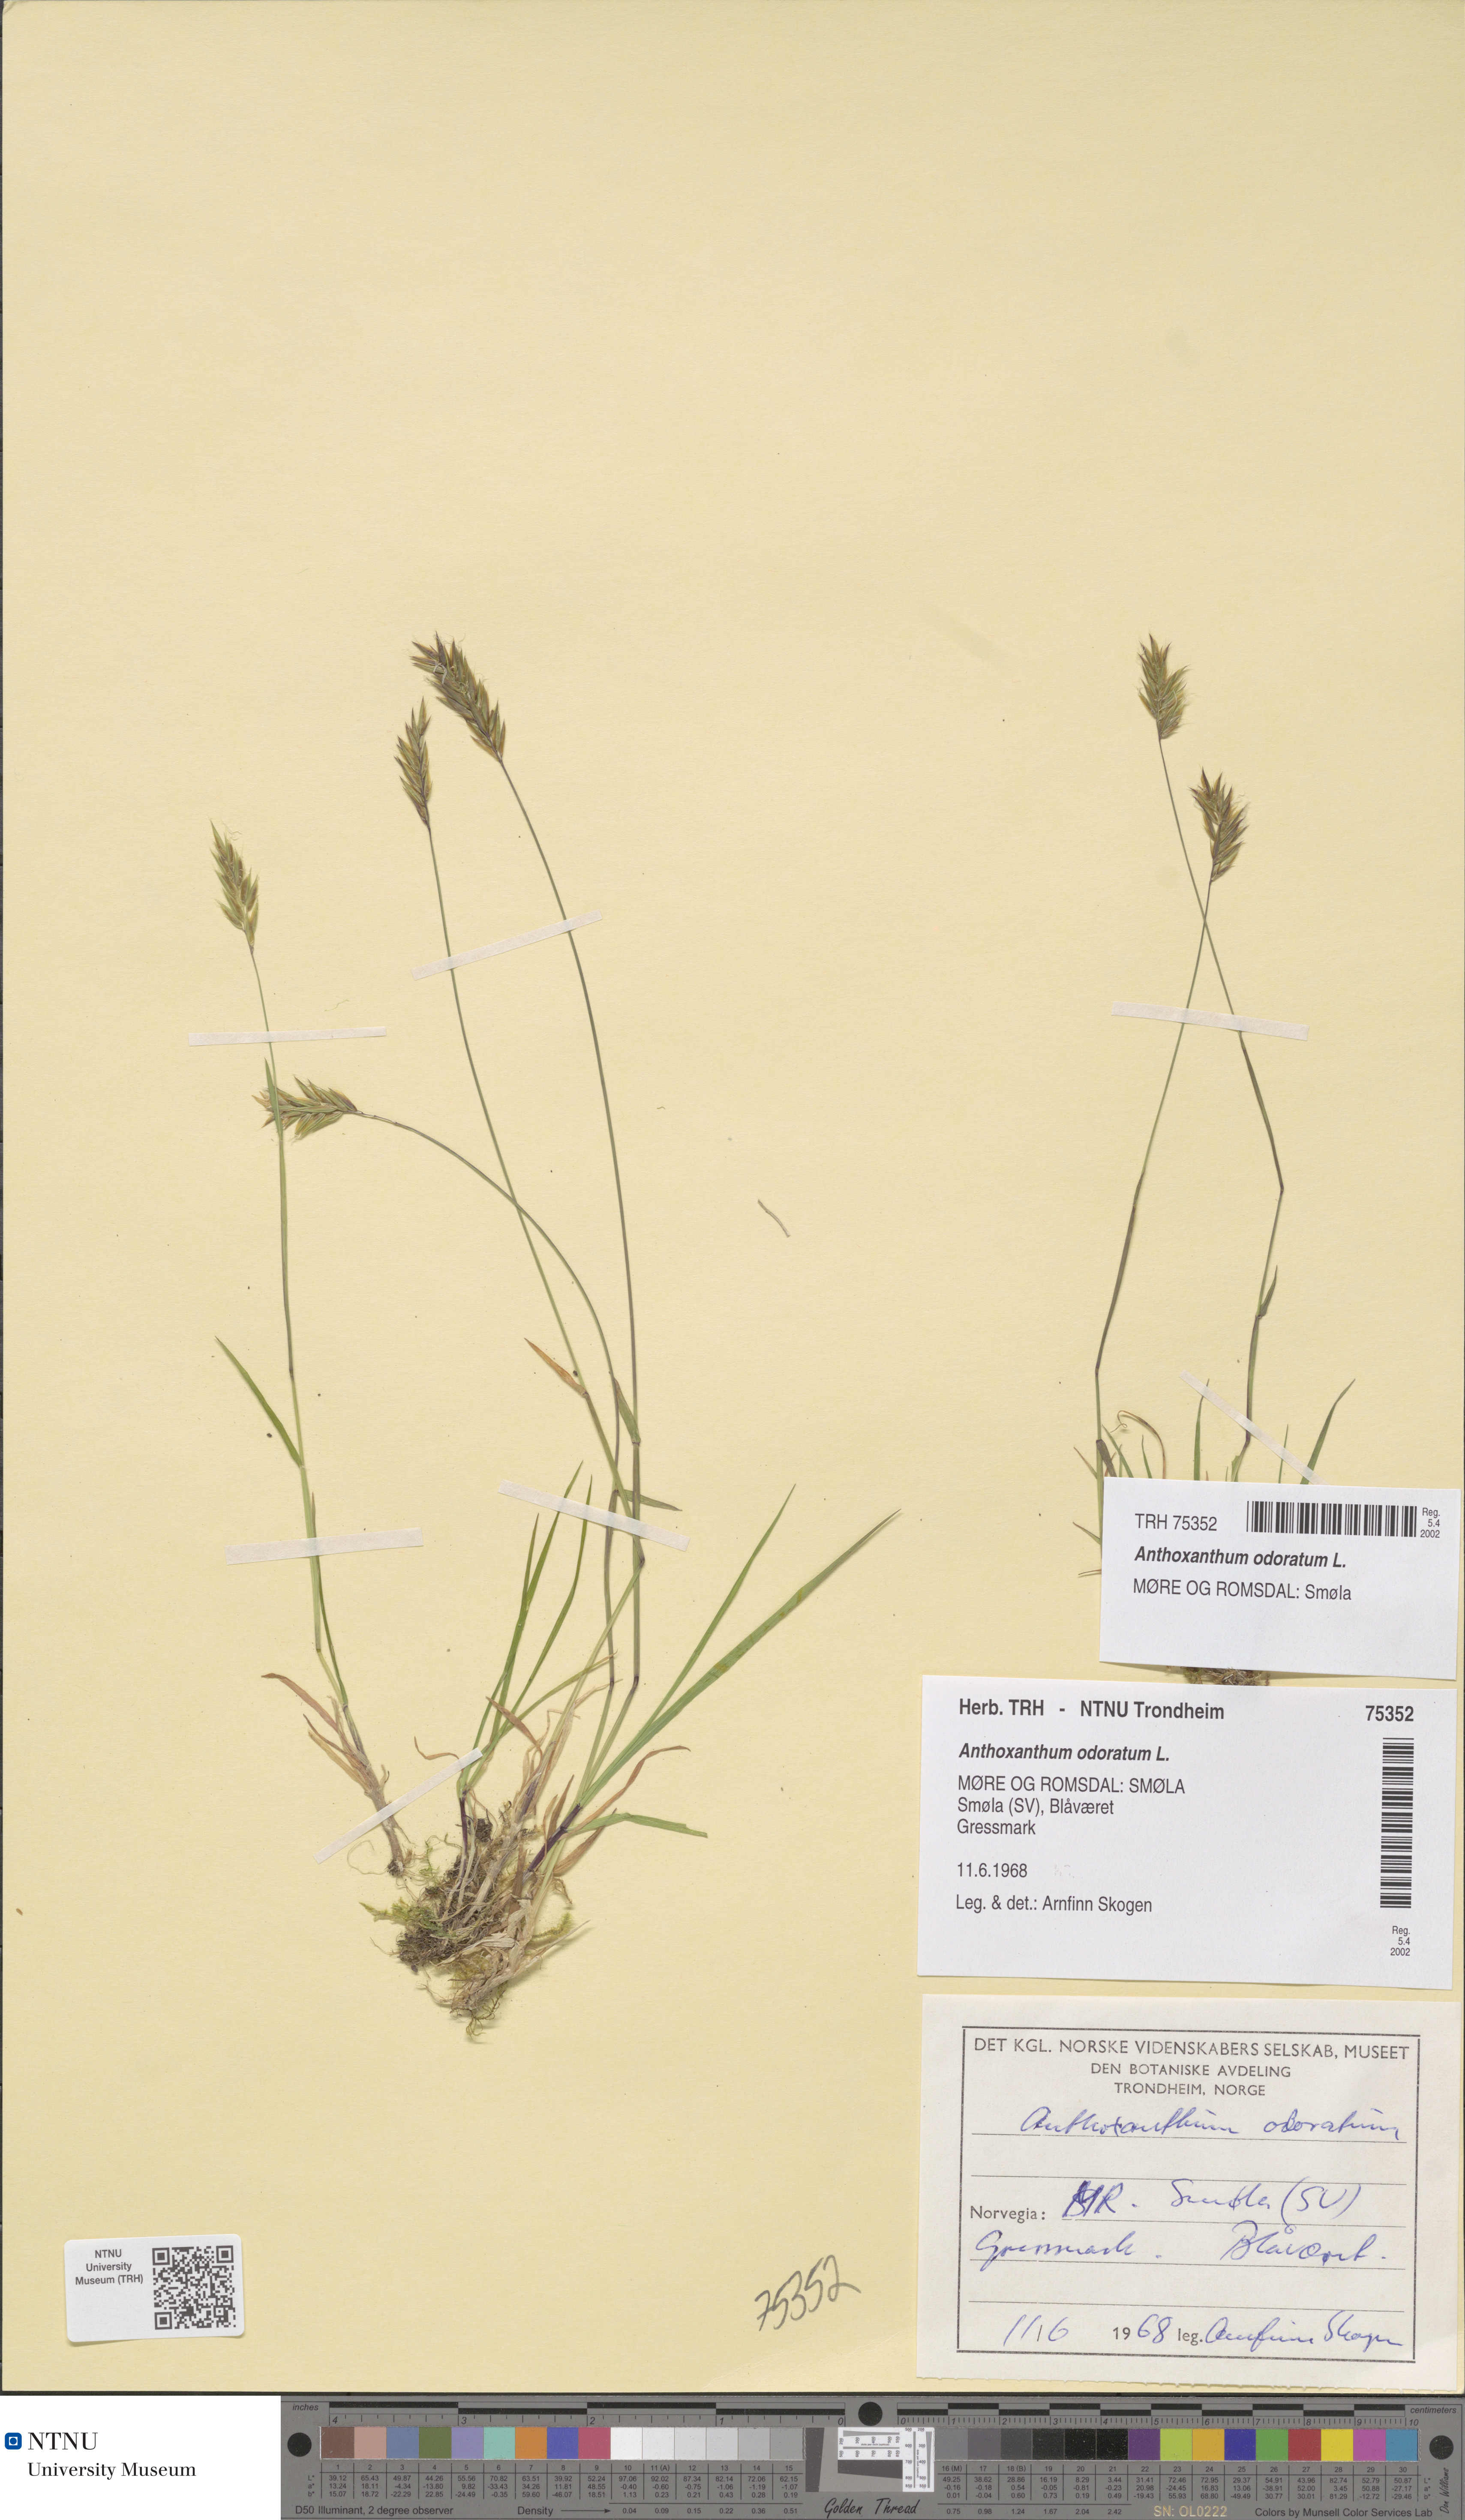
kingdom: Plantae
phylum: Tracheophyta
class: Liliopsida
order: Poales
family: Poaceae
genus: Anthoxanthum
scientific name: Anthoxanthum odoratum
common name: Sweet vernalgrass
